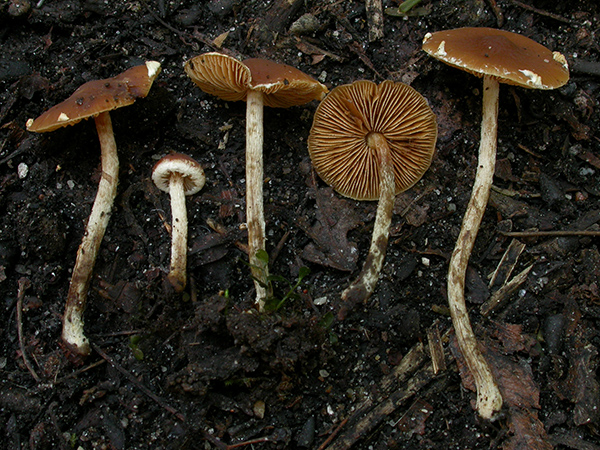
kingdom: Fungi
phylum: Basidiomycota
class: Agaricomycetes
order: Agaricales
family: Bolbitiaceae
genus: Conocybe
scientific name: Conocybe vestita
